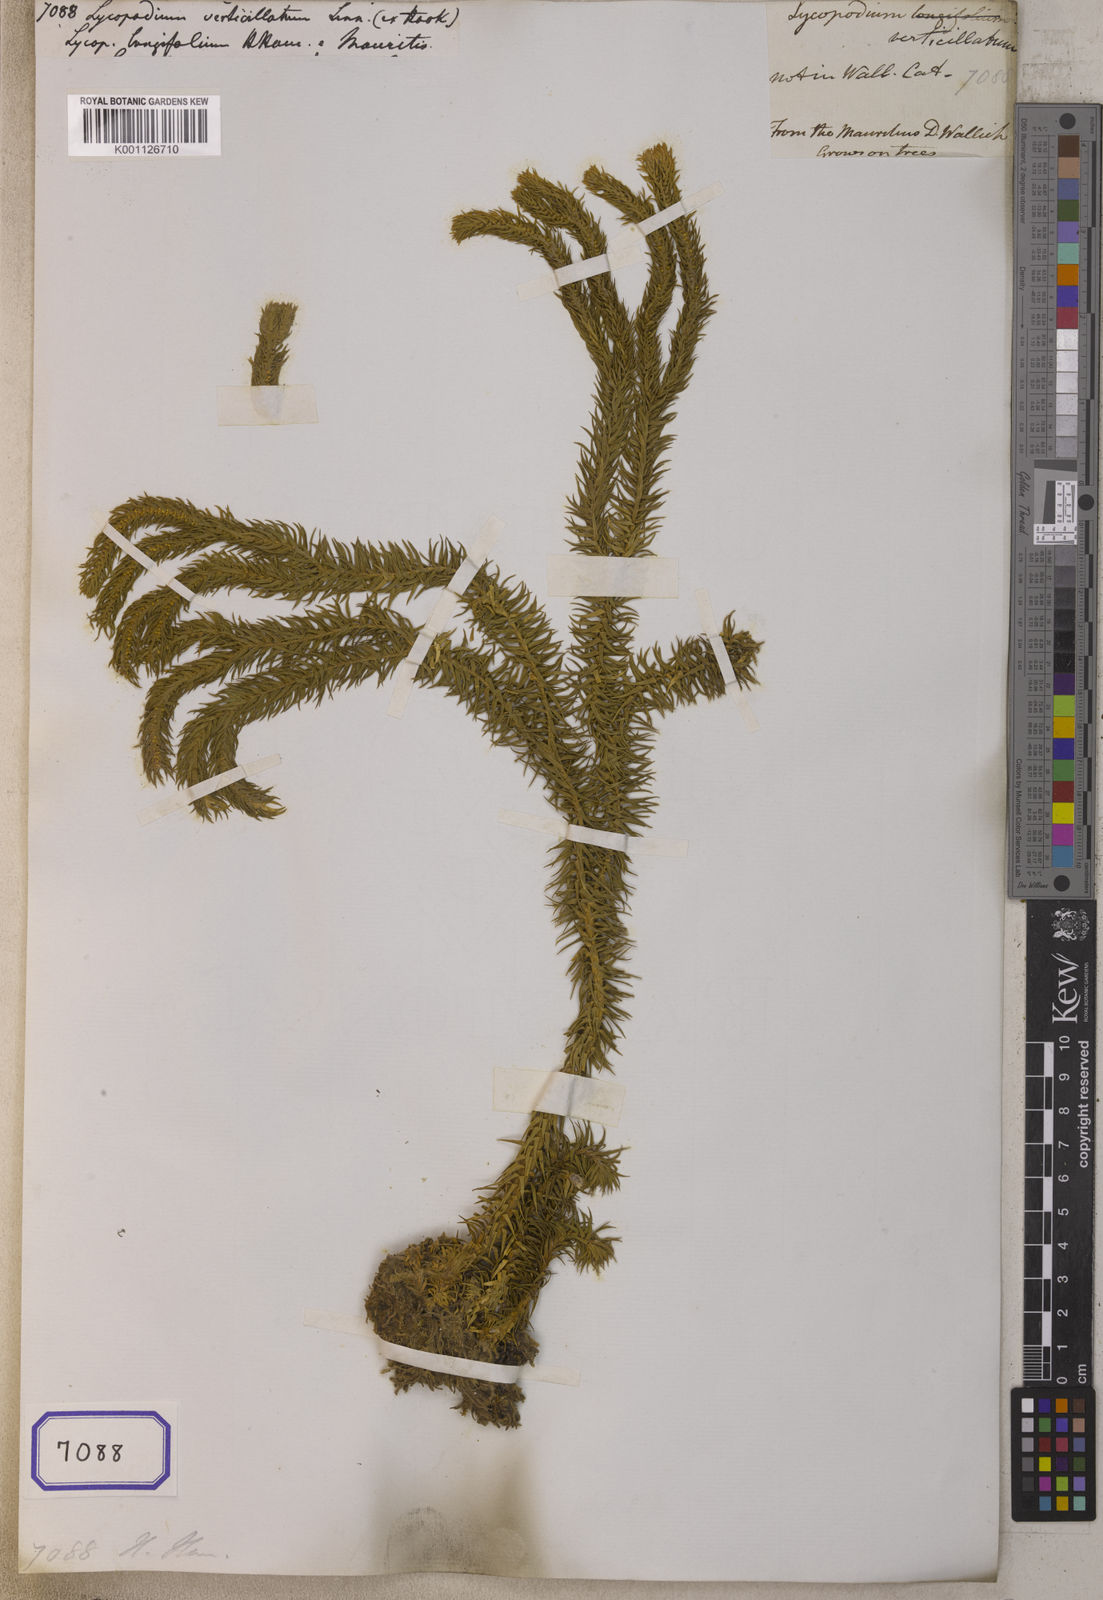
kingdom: Plantae
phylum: Tracheophyta
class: Lycopodiopsida
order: Lycopodiales
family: Lycopodiaceae
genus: Phlegmariurus
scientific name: Phlegmariurus verticillatus
